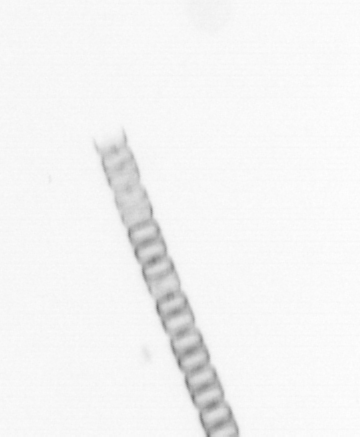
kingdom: Chromista
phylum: Ochrophyta
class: Bacillariophyceae
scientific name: Bacillariophyceae
